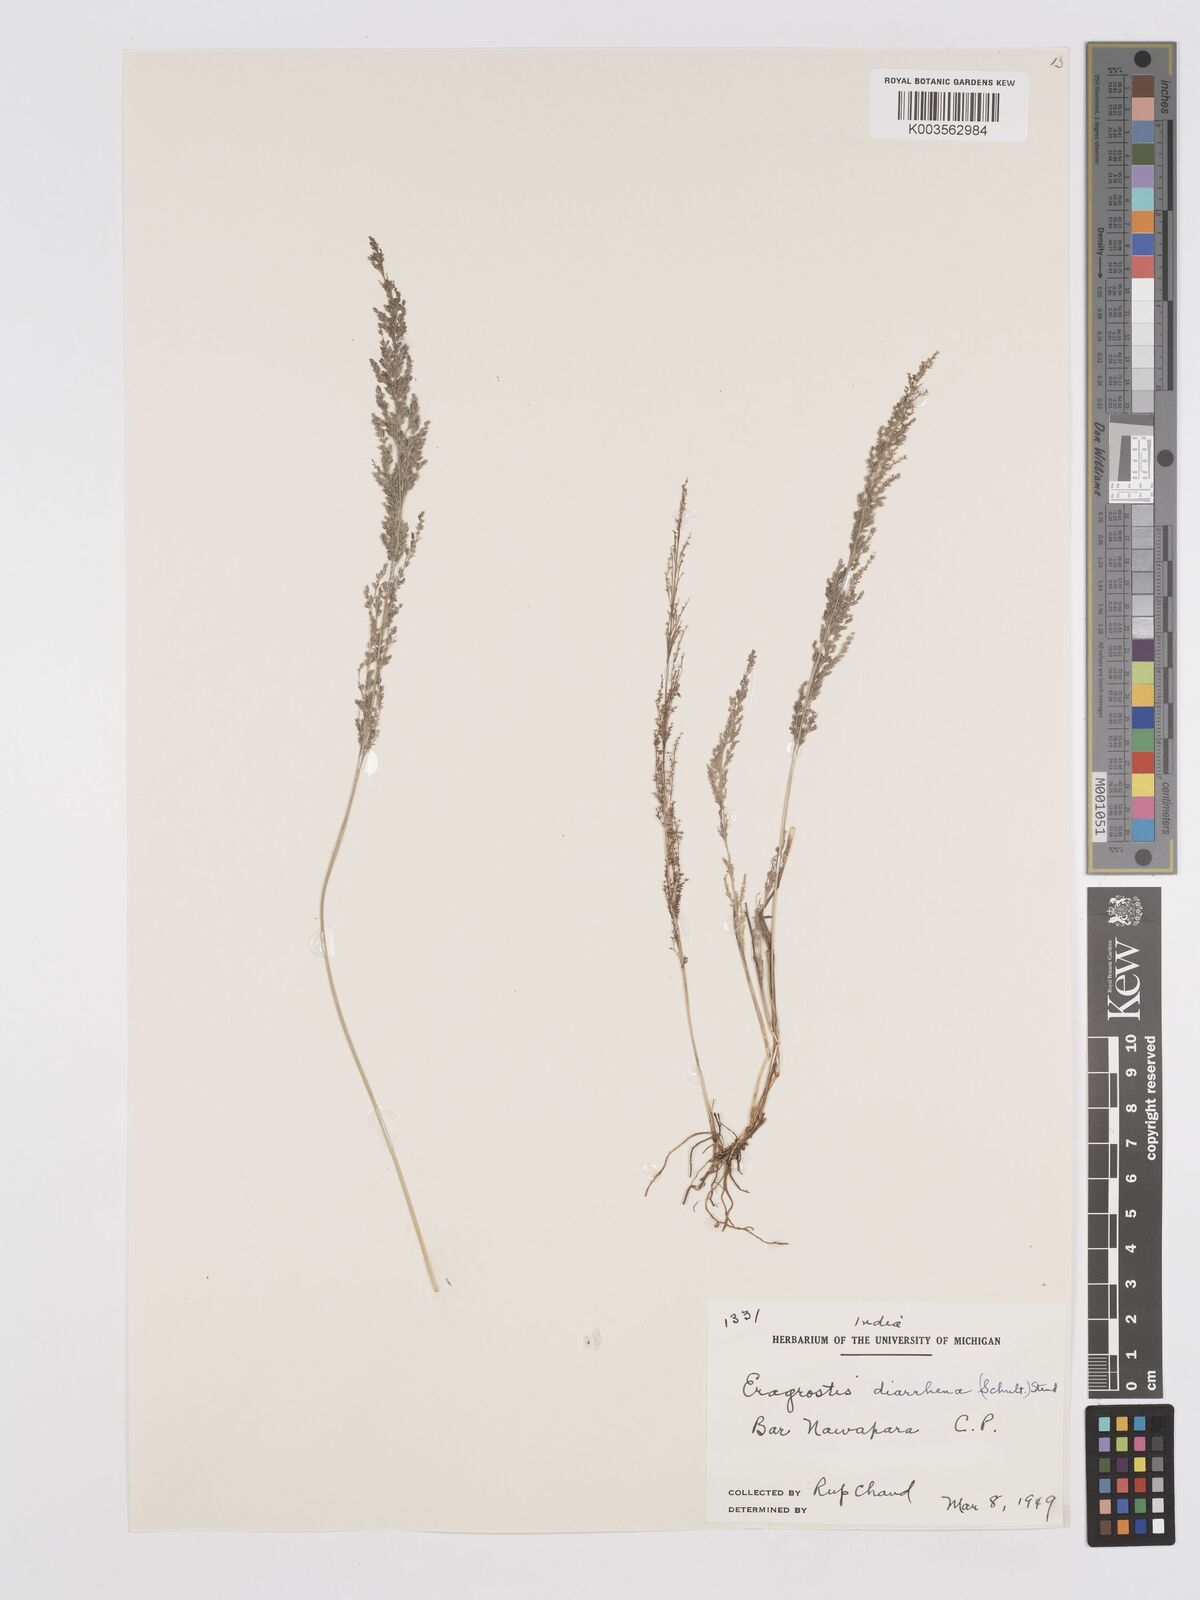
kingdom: Plantae
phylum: Tracheophyta
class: Liliopsida
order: Poales
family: Poaceae
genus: Eragrostis
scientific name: Eragrostis japonica
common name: Pond lovegrass
